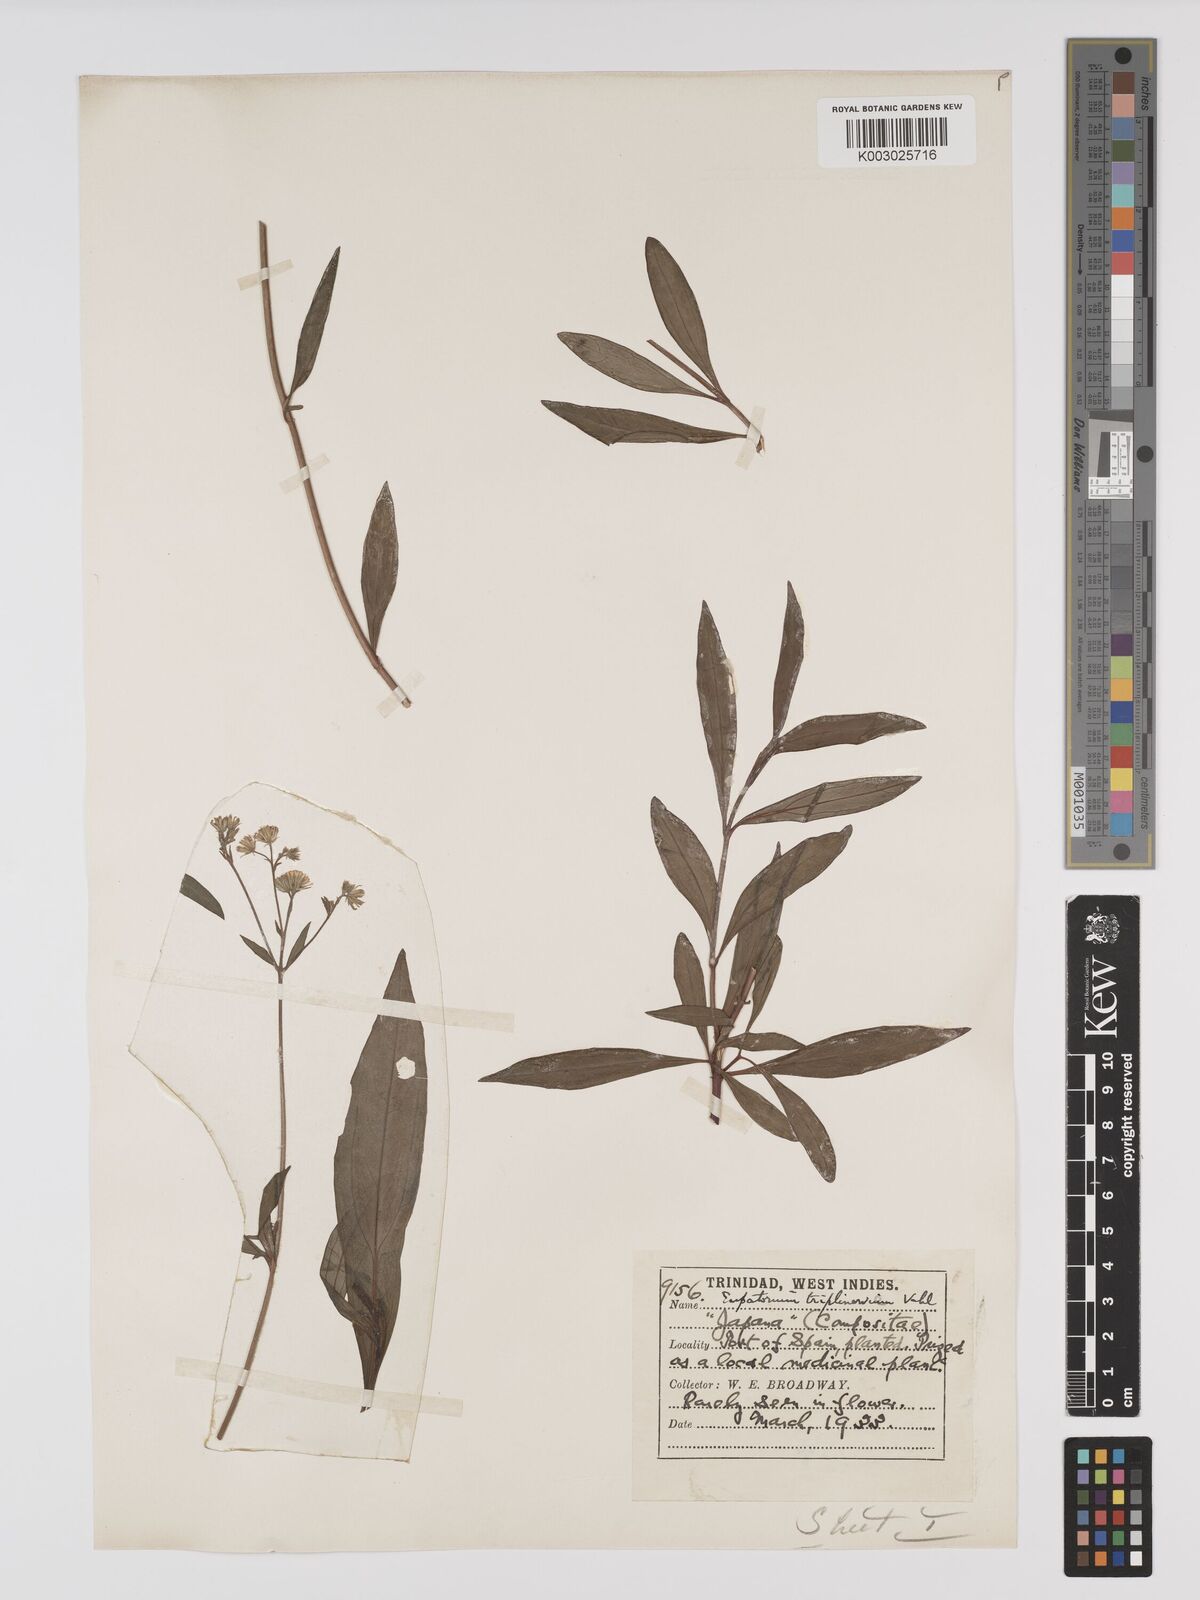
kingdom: Plantae
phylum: Tracheophyta
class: Magnoliopsida
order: Asterales
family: Asteraceae
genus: Ayapana
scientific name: Ayapana triplinervis
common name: Triplinerved eupatorium
